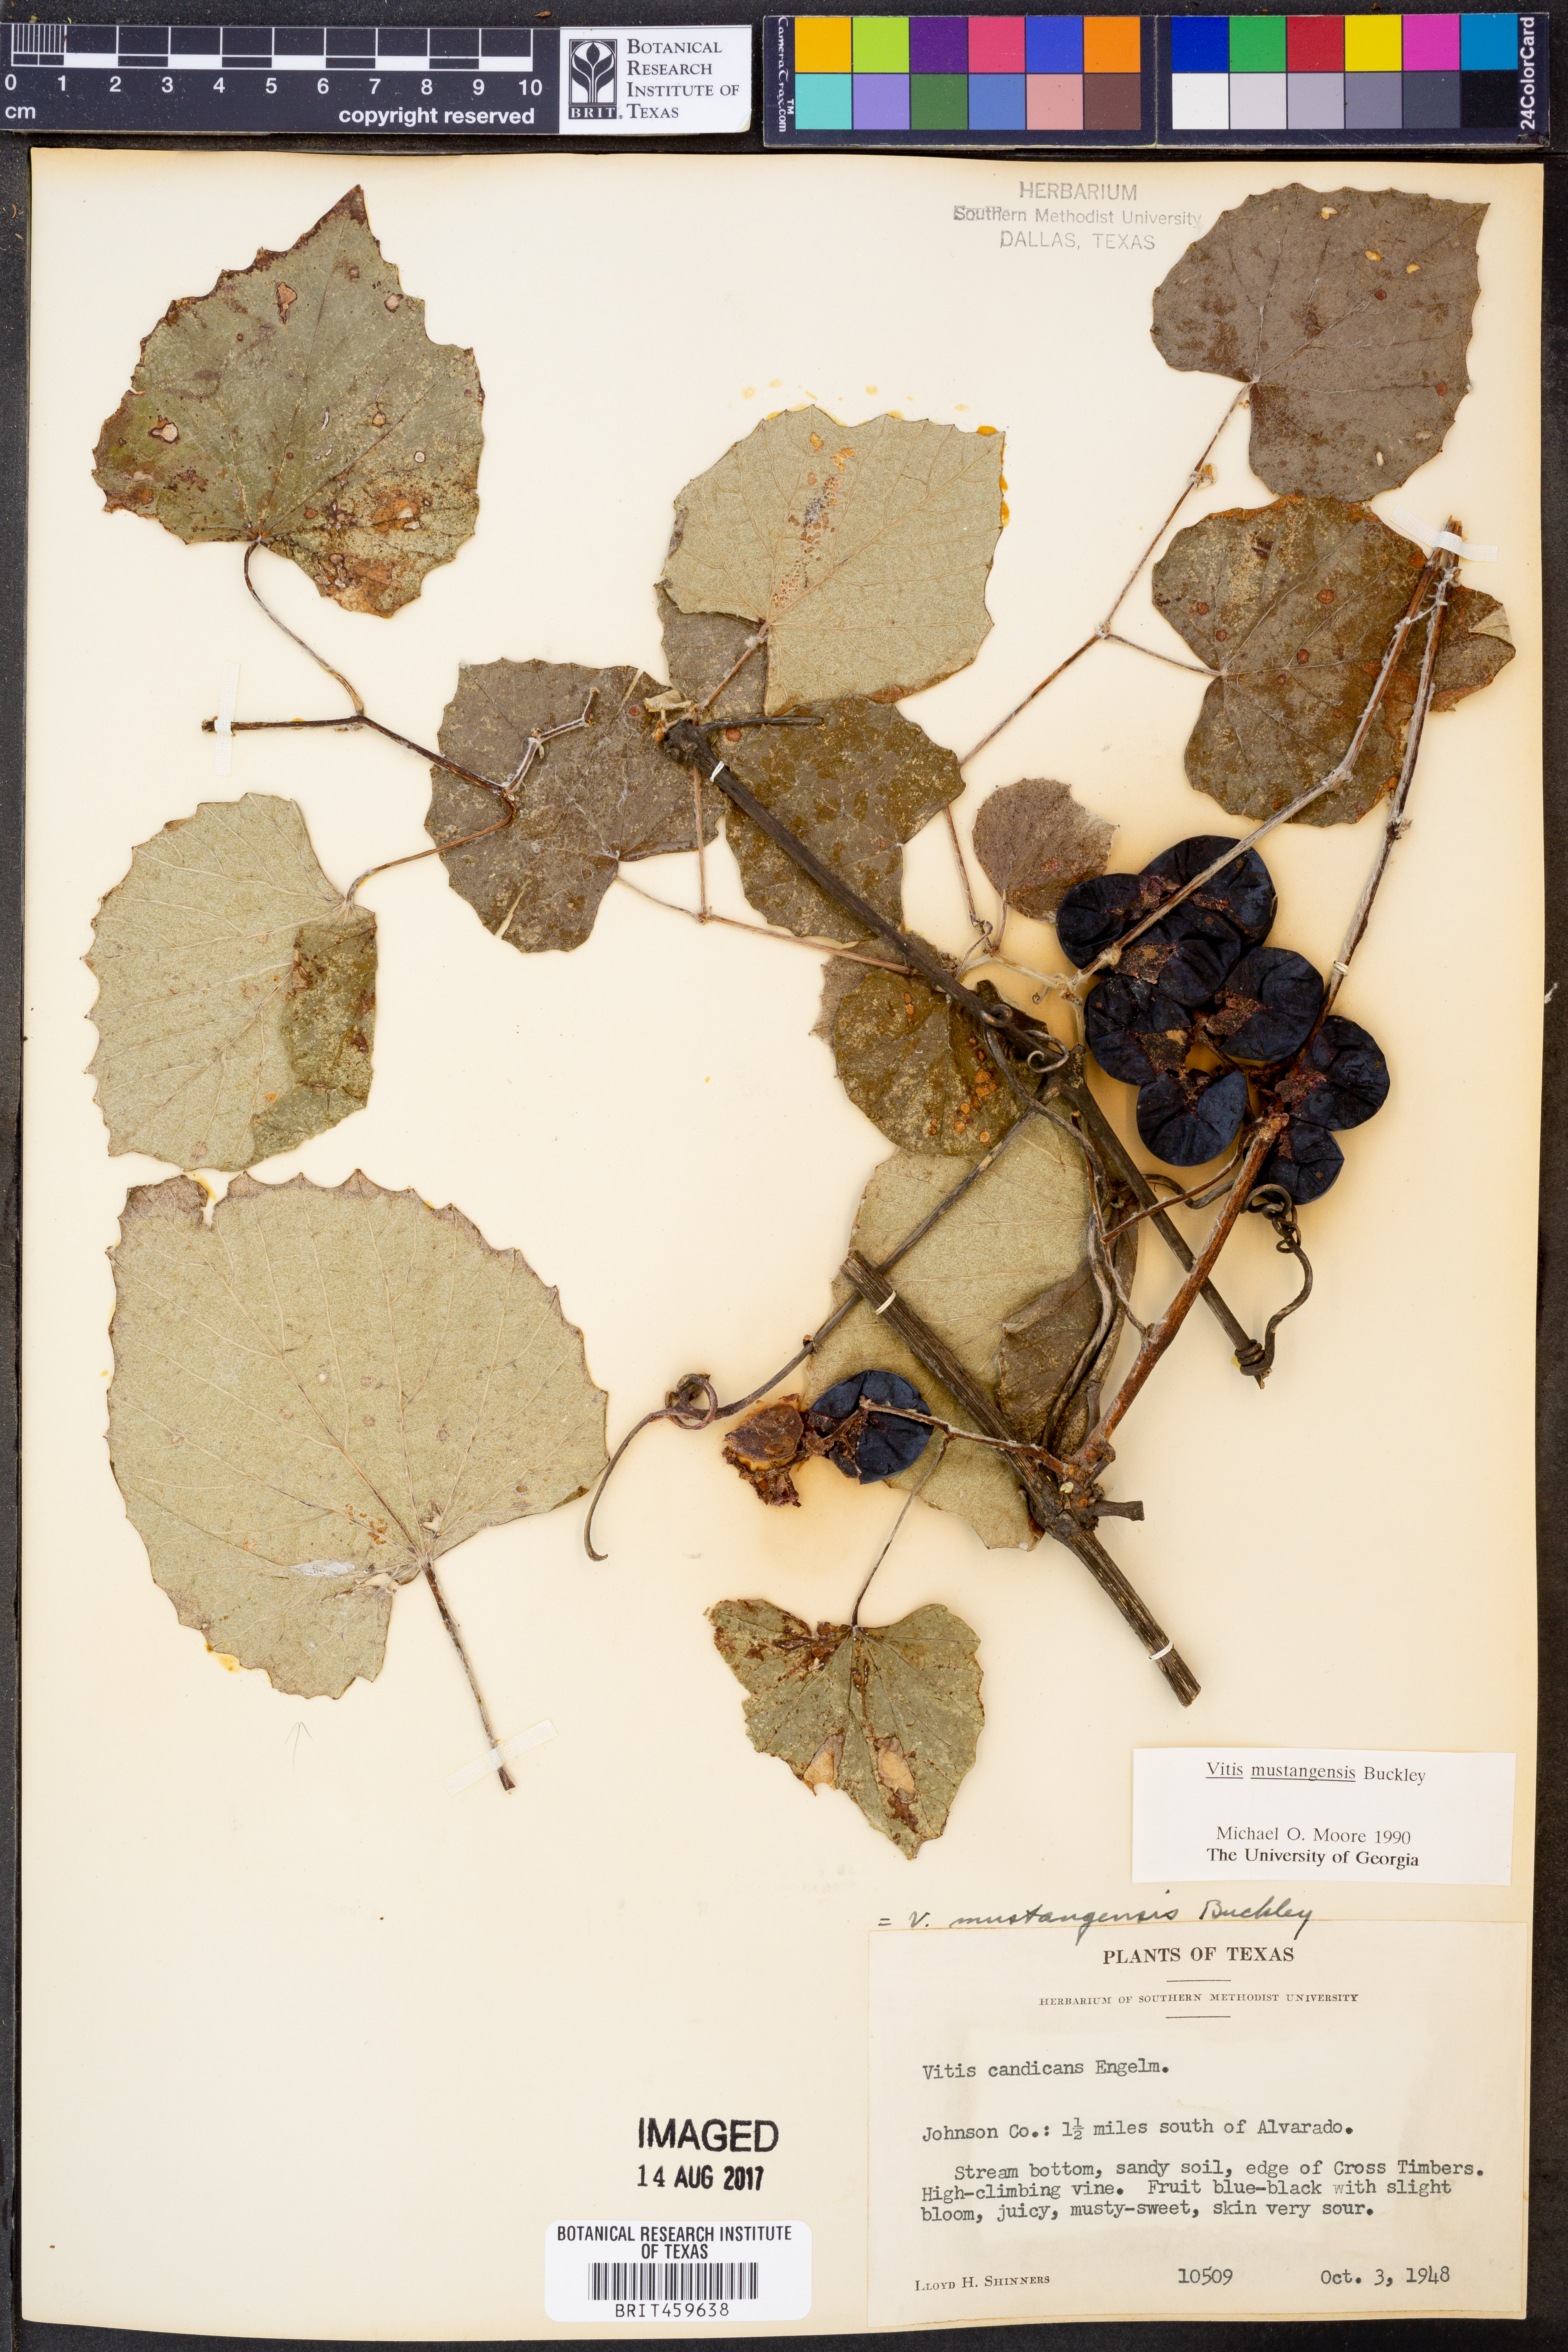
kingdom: Plantae
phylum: Tracheophyta
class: Magnoliopsida
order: Vitales
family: Vitaceae
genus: Vitis
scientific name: Vitis mustangensis
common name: Mustang grape
